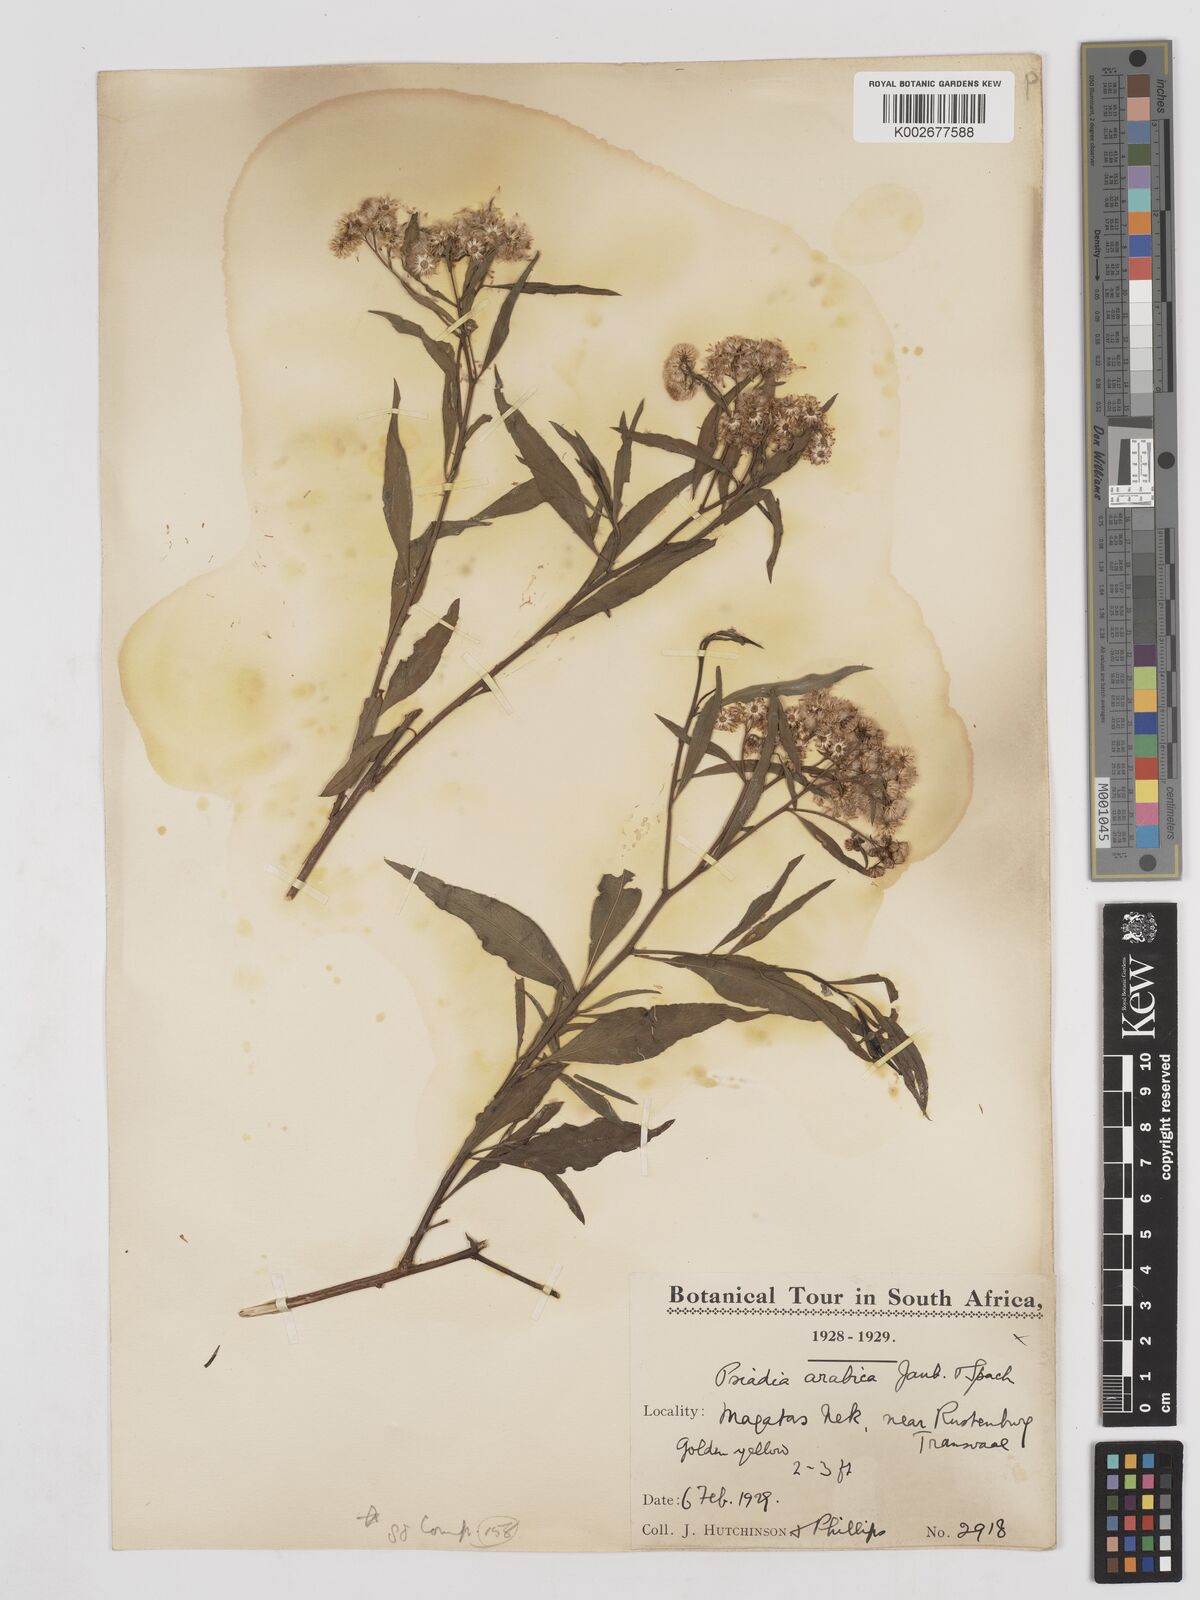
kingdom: Plantae
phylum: Tracheophyta
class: Magnoliopsida
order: Asterales
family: Asteraceae
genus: Psiadia
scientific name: Psiadia punctulata
